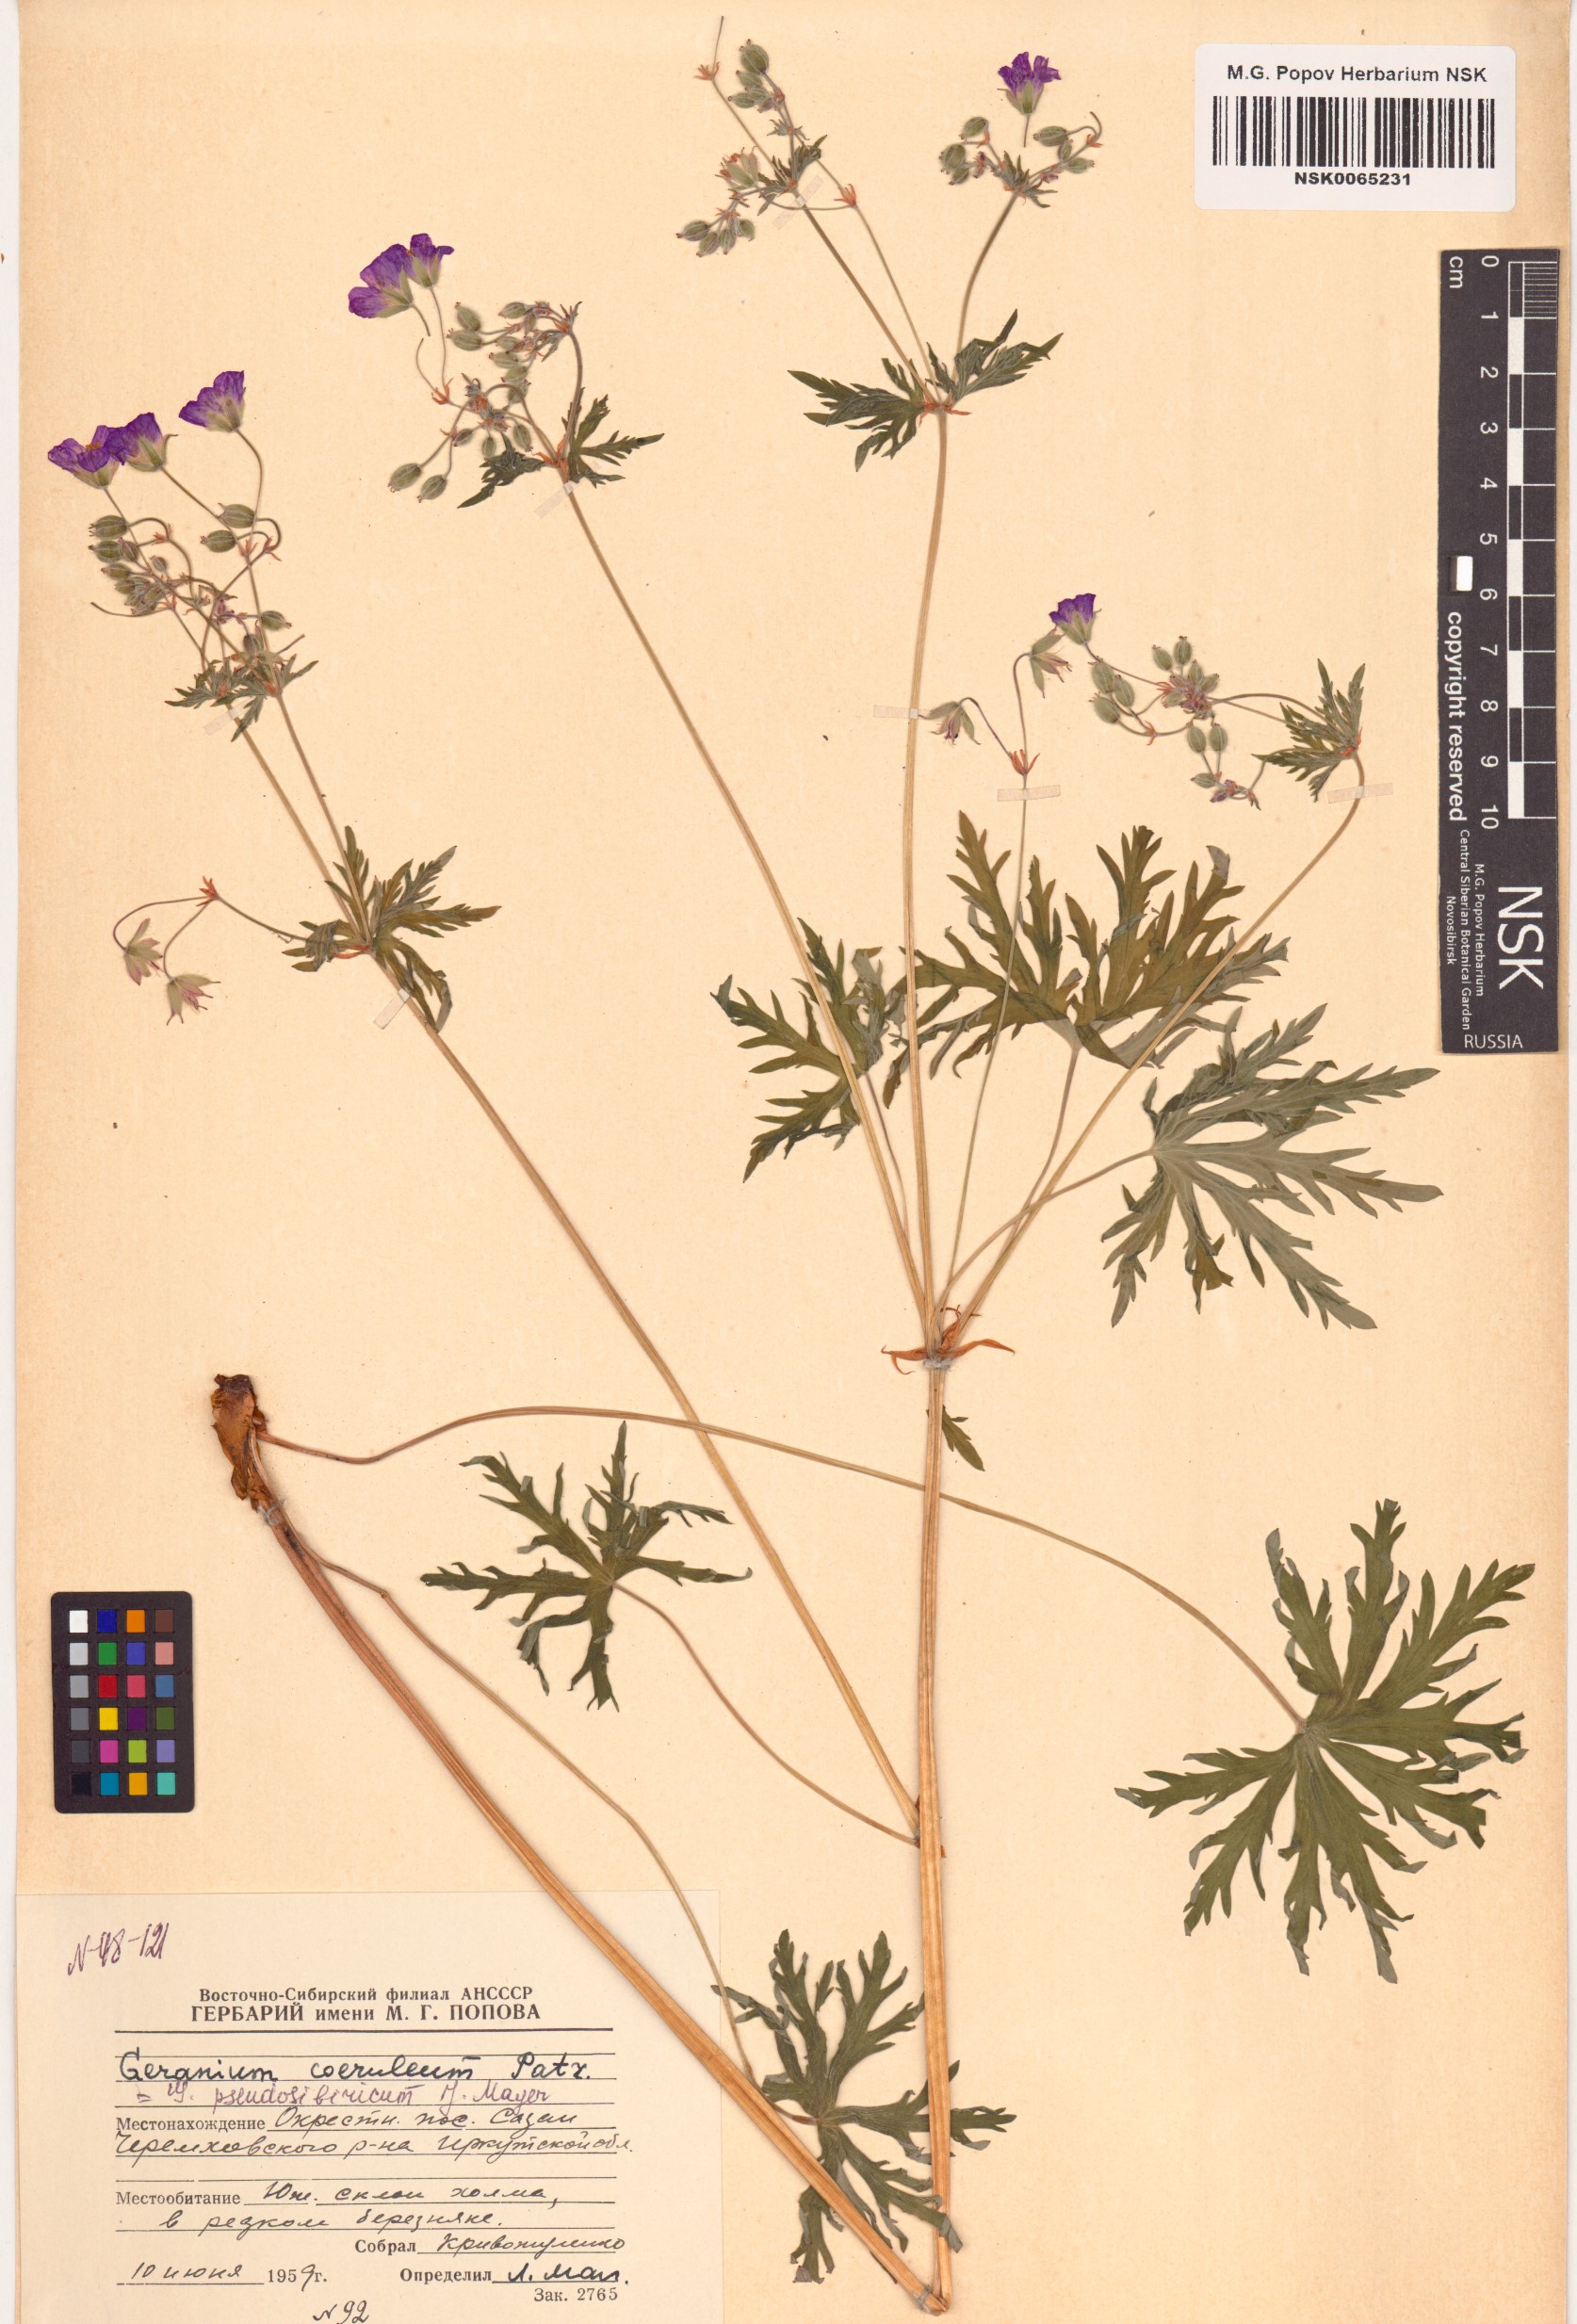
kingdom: Plantae
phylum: Tracheophyta
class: Magnoliopsida
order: Geraniales
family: Geraniaceae
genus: Geranium
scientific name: Geranium pseudosibiricum
